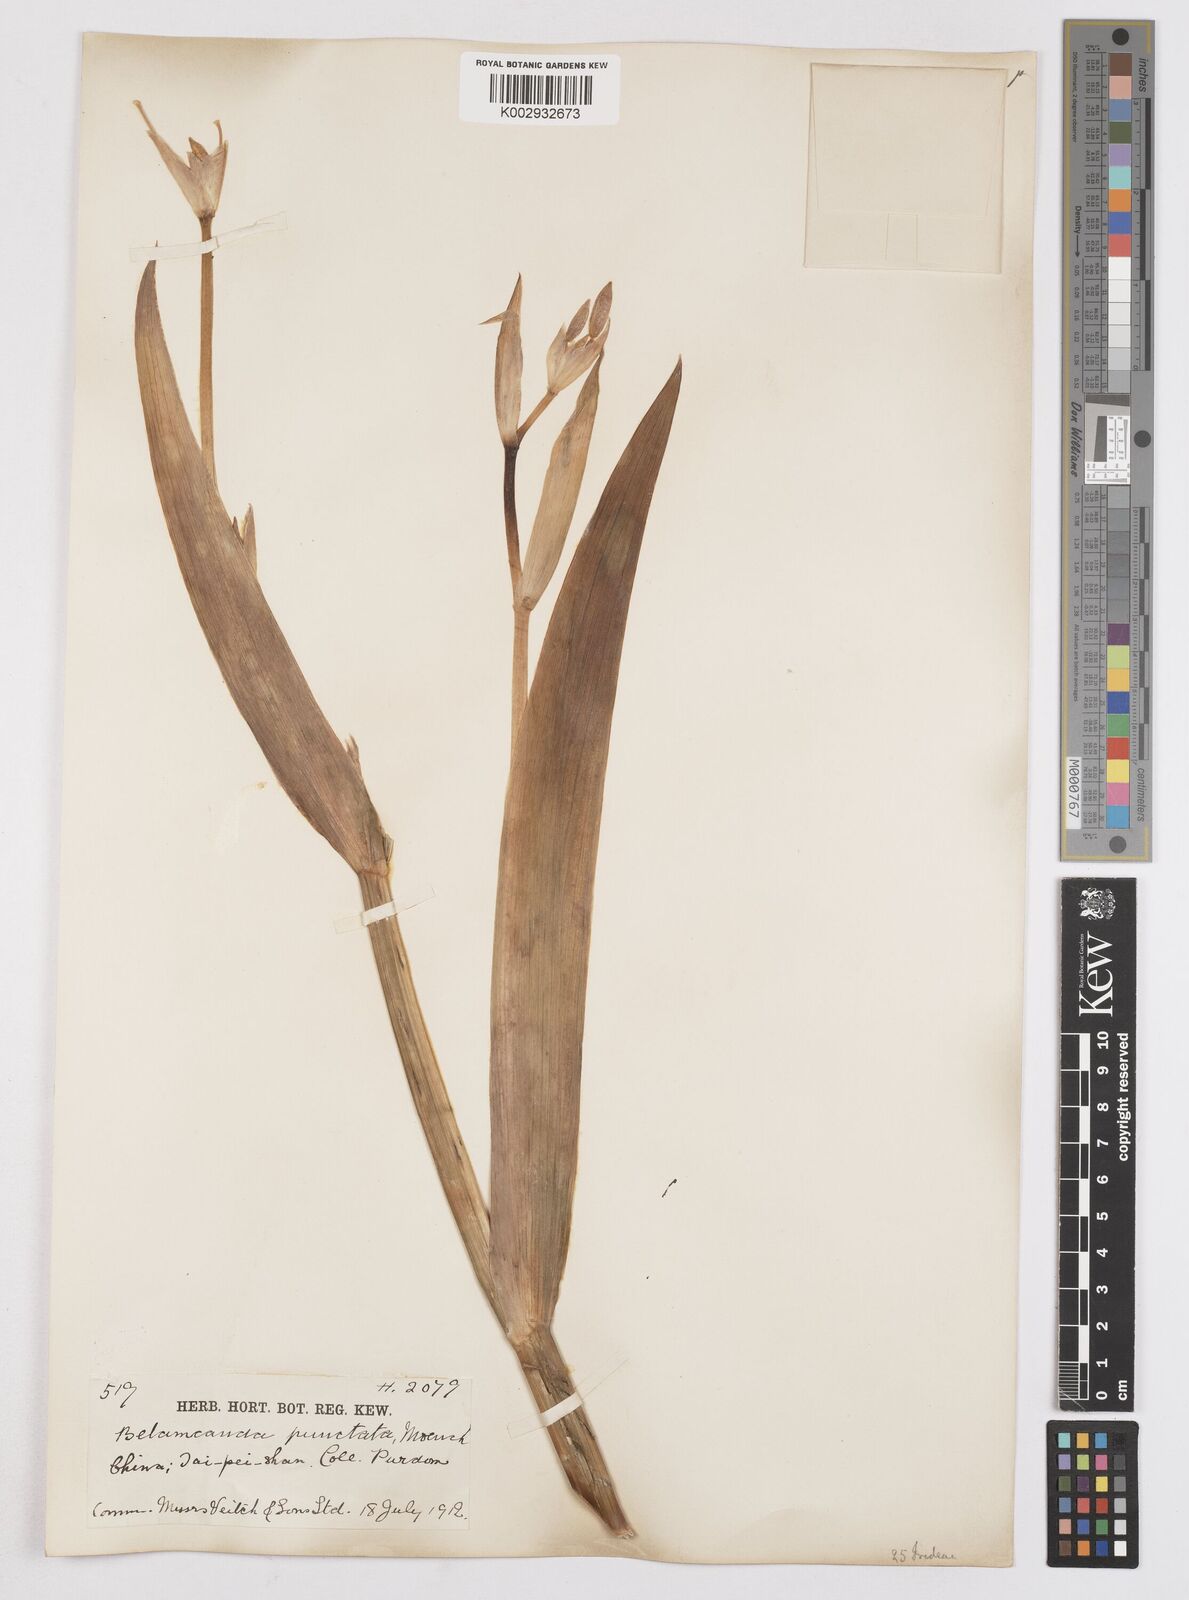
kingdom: Plantae
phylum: Tracheophyta
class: Liliopsida
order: Asparagales
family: Iridaceae
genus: Iris
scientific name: Iris
